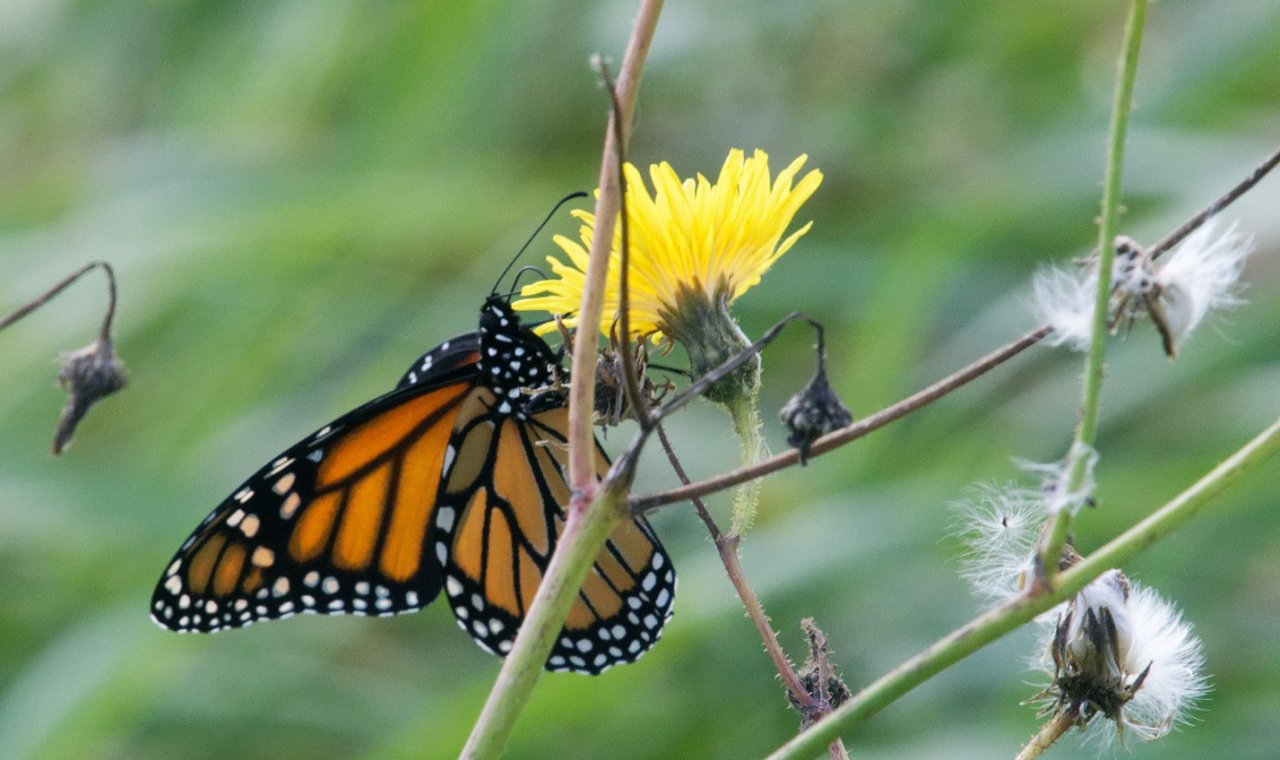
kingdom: Animalia
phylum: Arthropoda
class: Insecta
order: Lepidoptera
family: Nymphalidae
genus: Danaus
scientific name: Danaus plexippus
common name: Monarch
